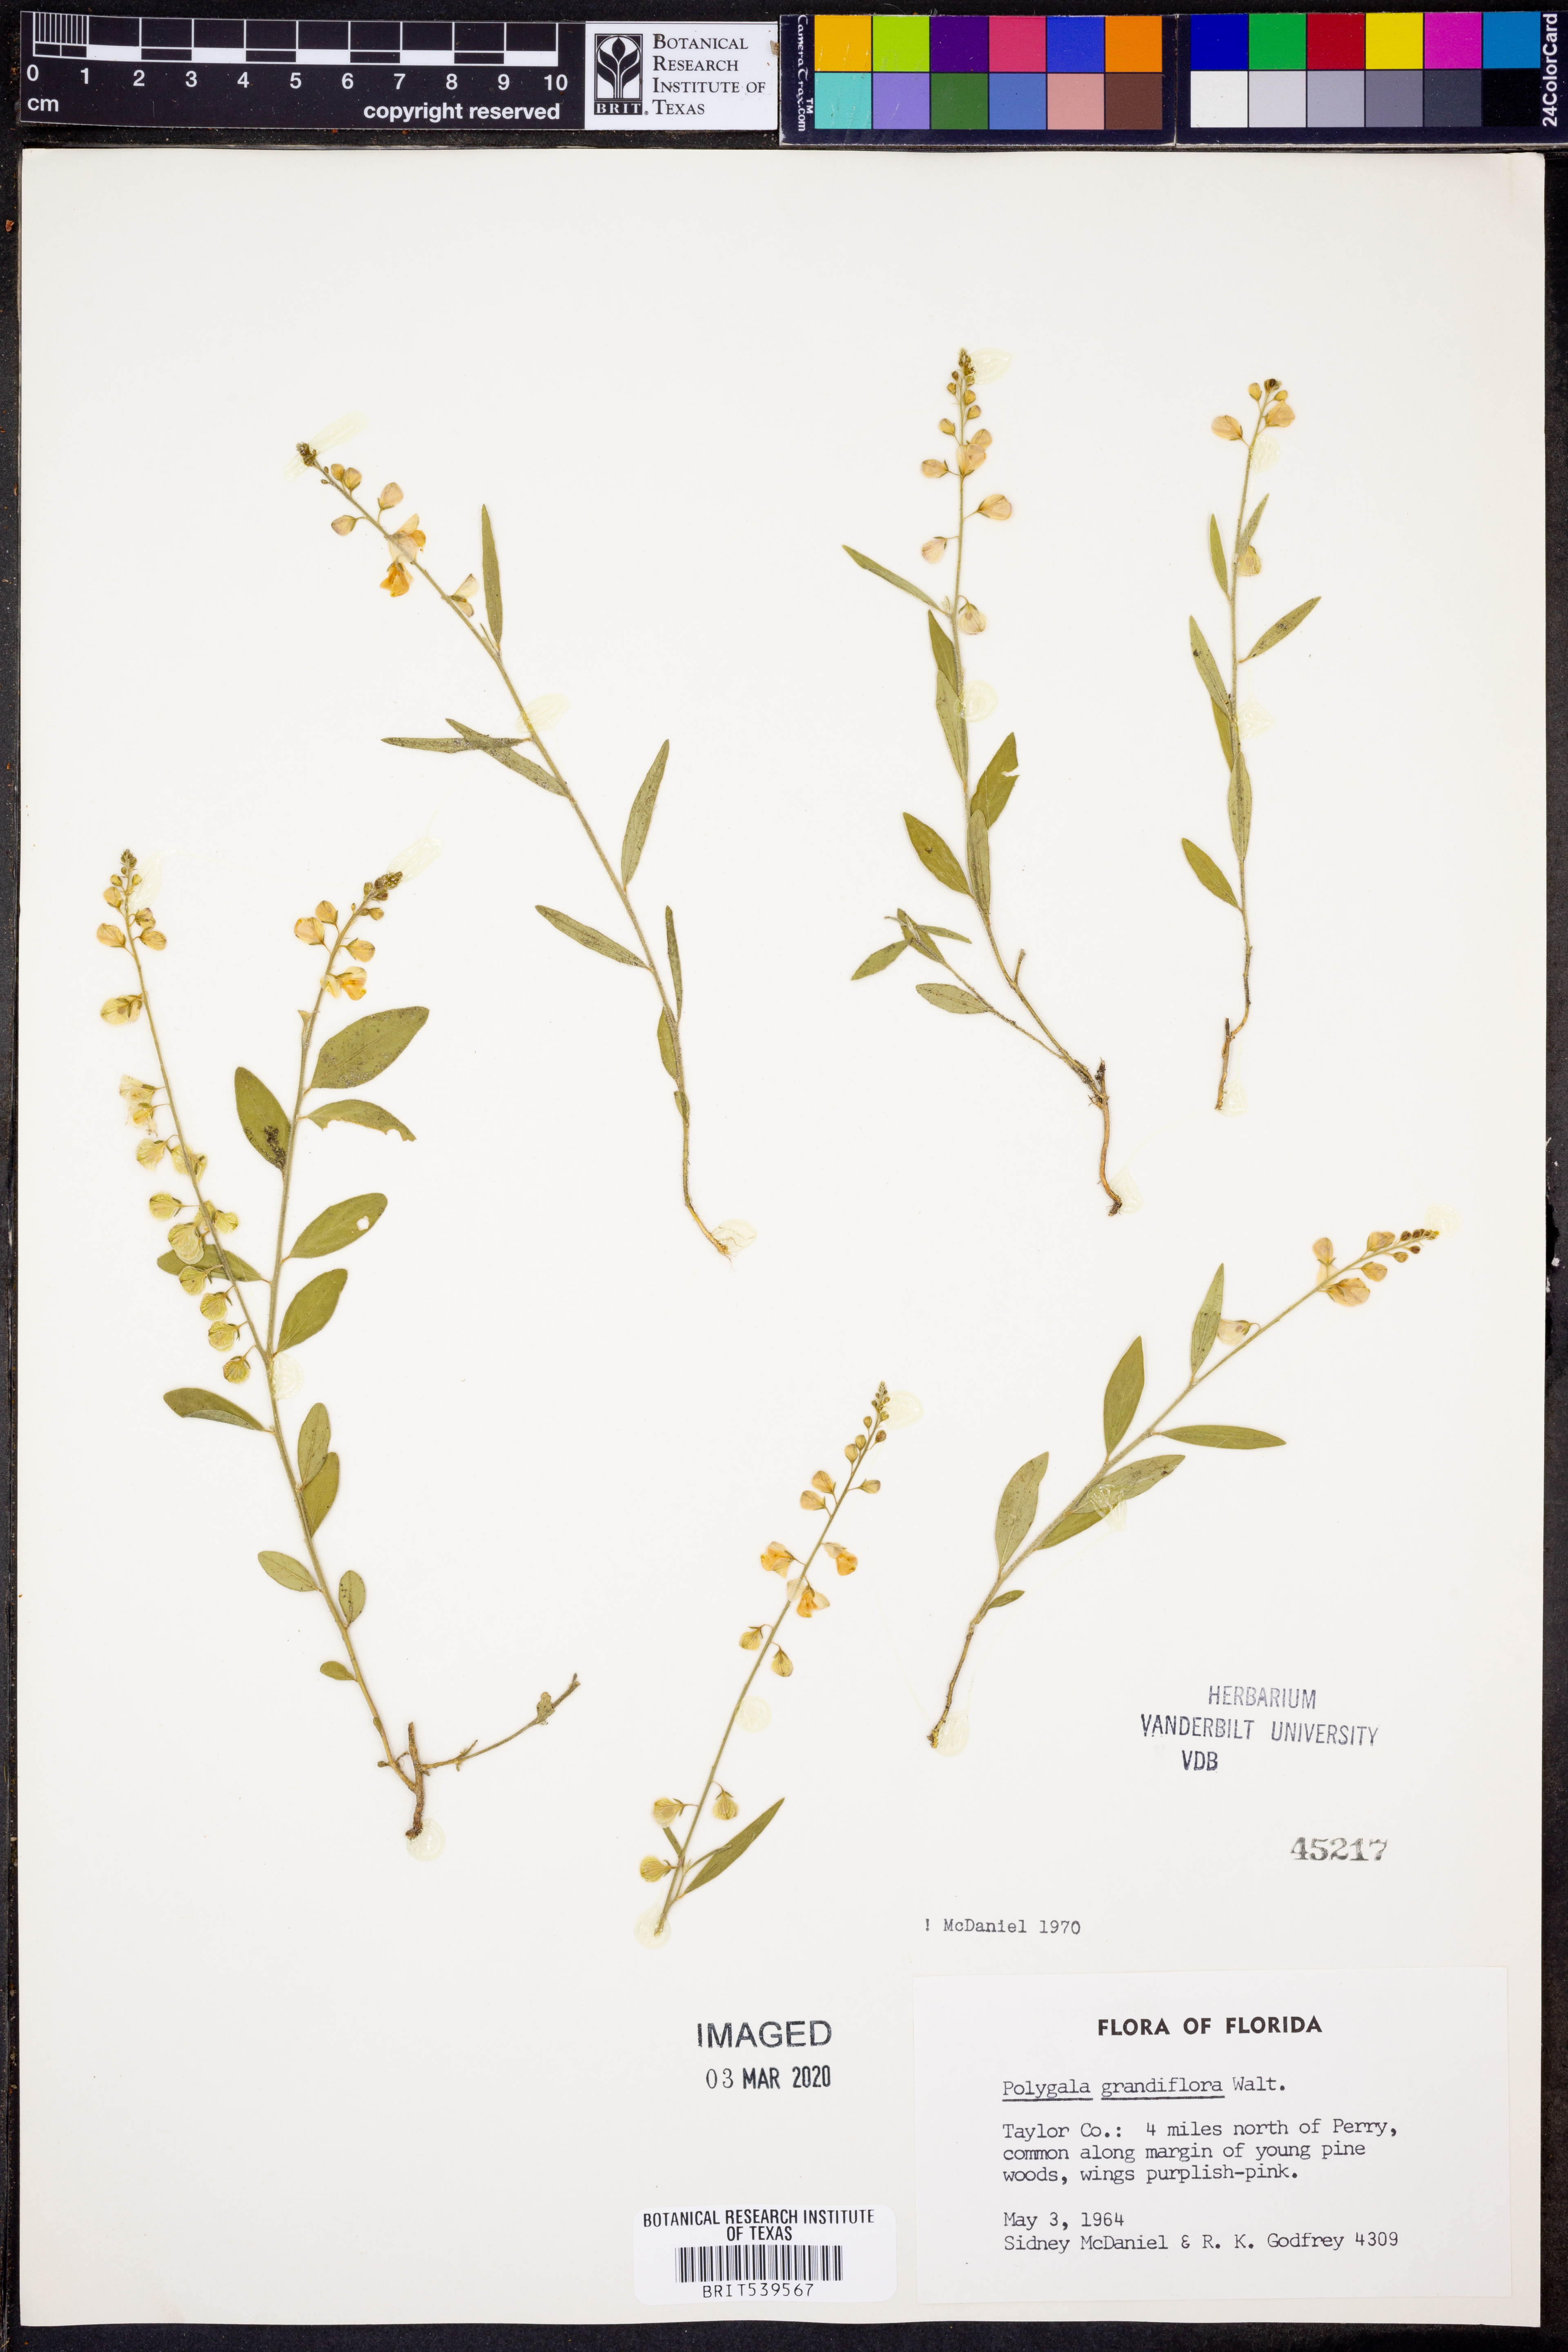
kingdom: Plantae
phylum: Tracheophyta
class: Magnoliopsida
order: Fabales
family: Polygalaceae
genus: Asemeia
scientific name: Asemeia grandiflora
